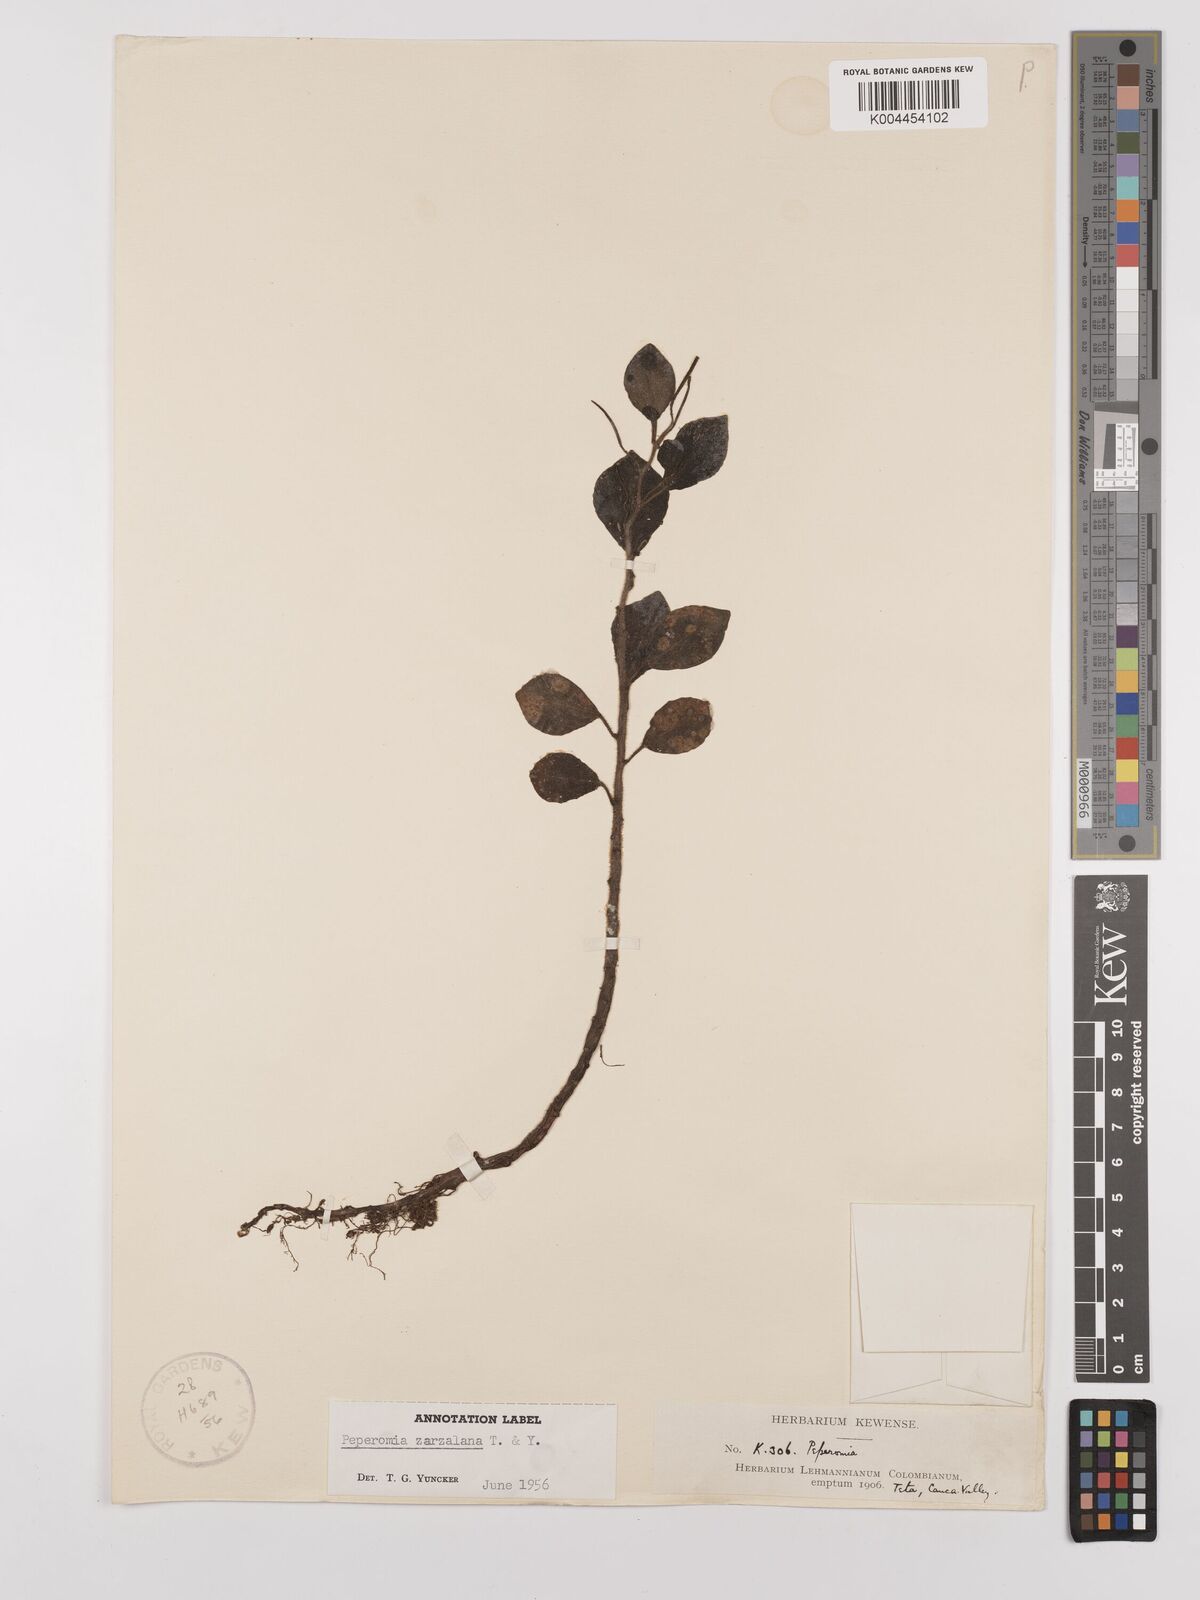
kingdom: Plantae
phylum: Tracheophyta
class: Magnoliopsida
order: Piperales
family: Piperaceae
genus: Peperomia
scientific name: Peperomia zarzalana
